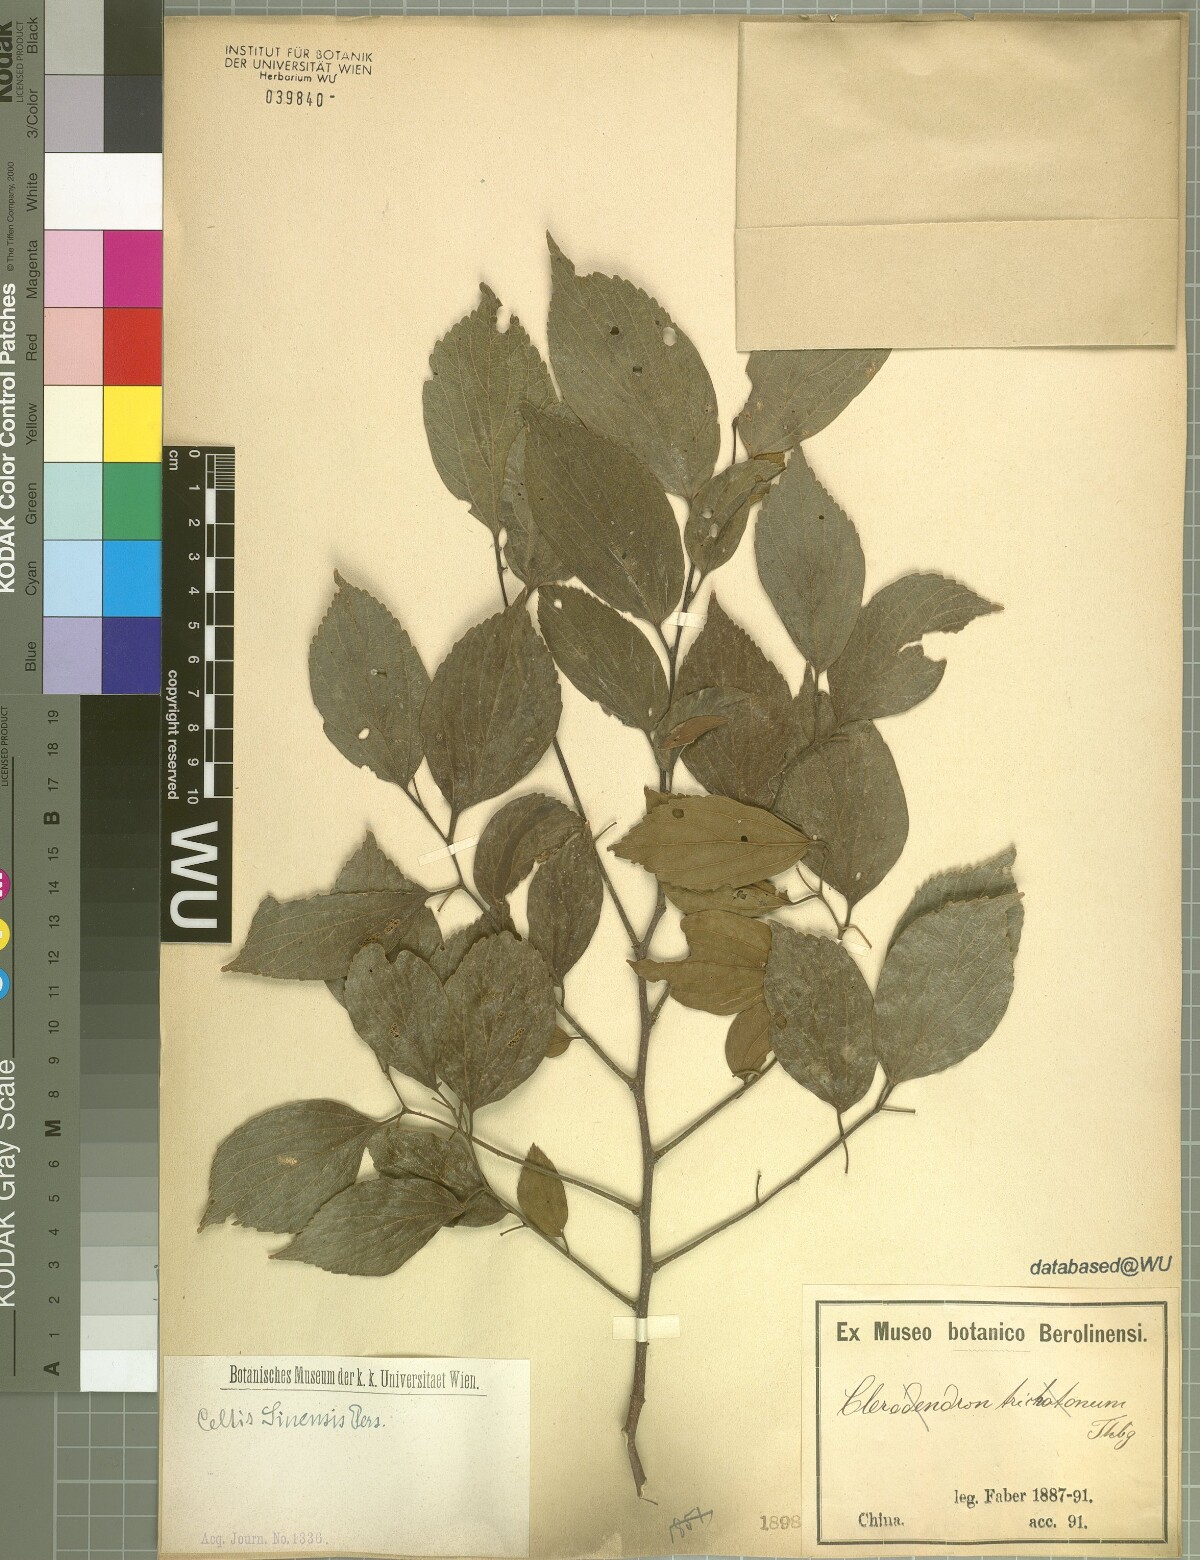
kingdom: Plantae
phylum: Tracheophyta
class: Magnoliopsida
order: Rosales
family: Cannabaceae
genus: Celtis
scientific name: Celtis sinensis
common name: Chinese hackberry
